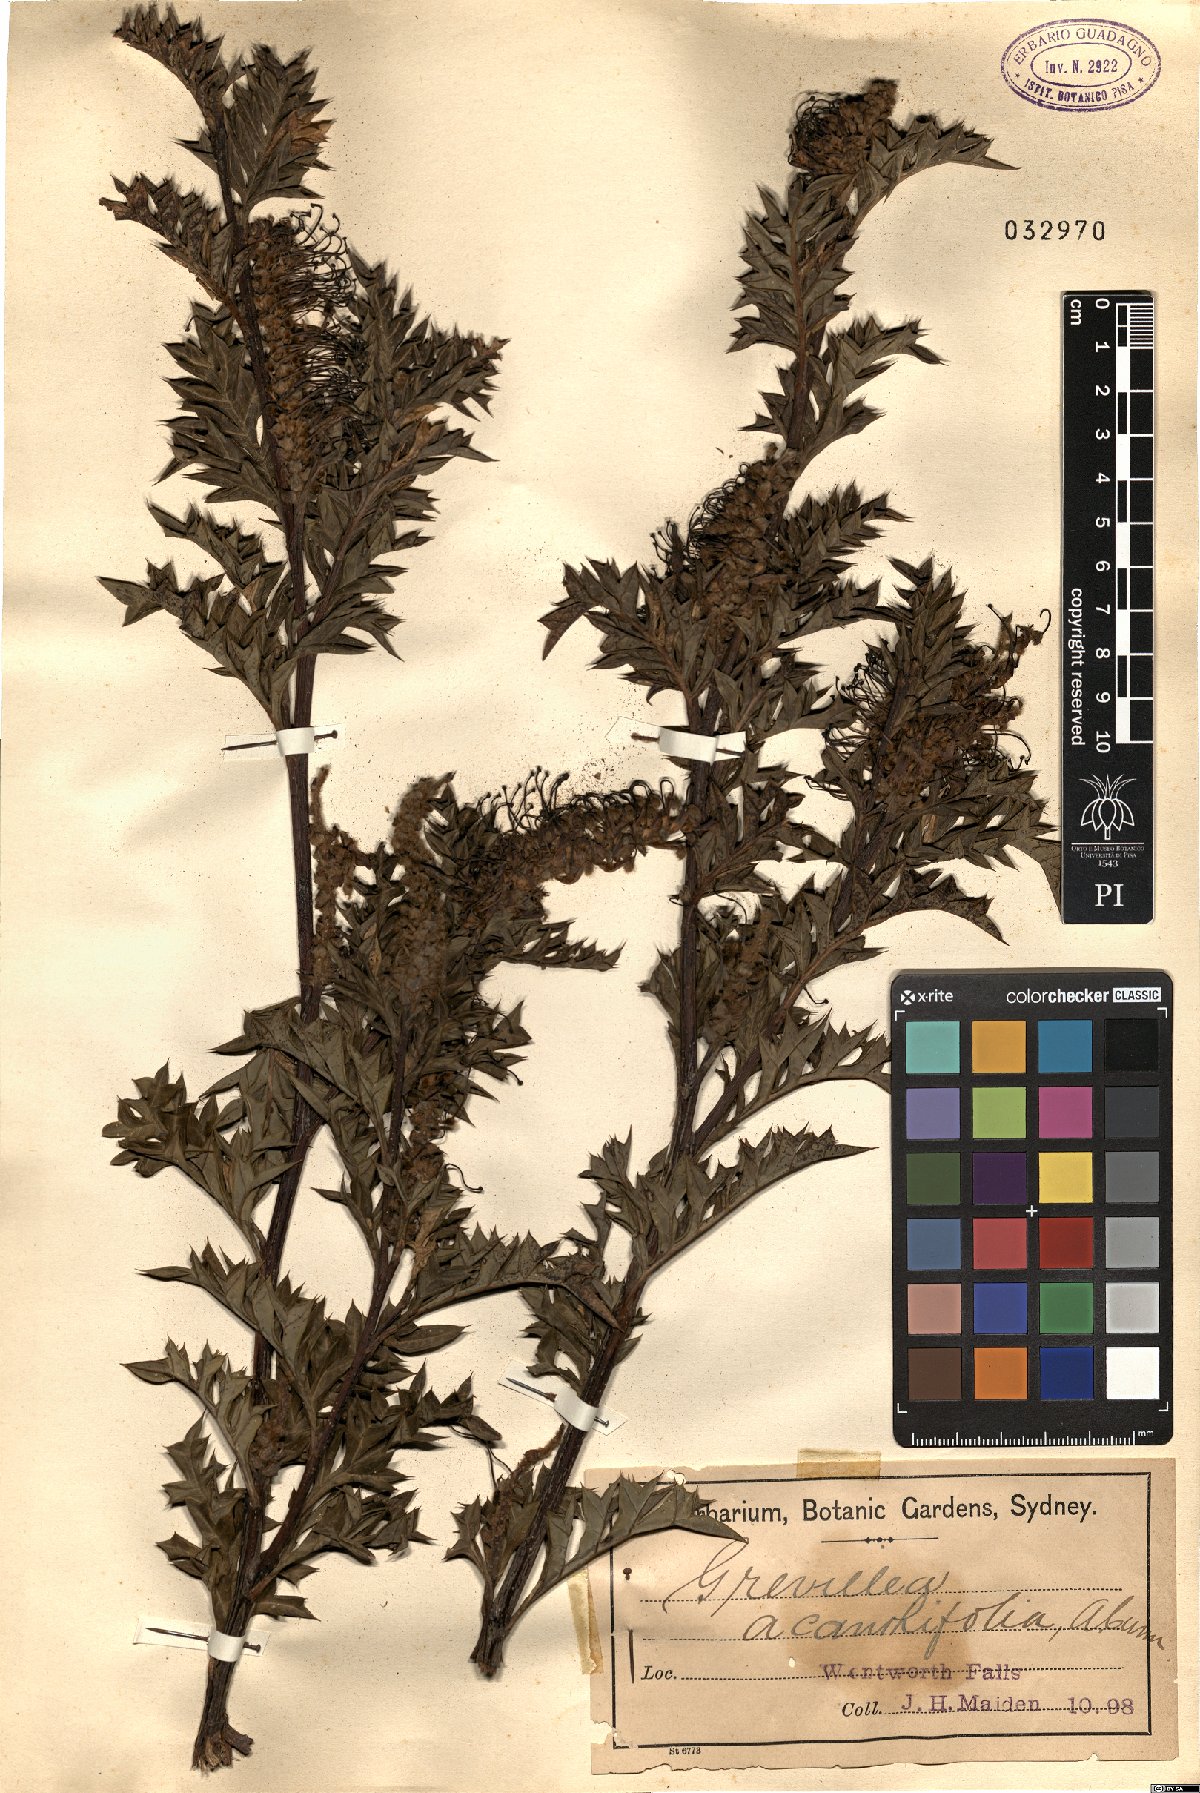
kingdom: Plantae
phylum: Tracheophyta
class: Magnoliopsida
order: Proteales
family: Proteaceae
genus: Grevillea
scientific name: Grevillea acanthifolia
